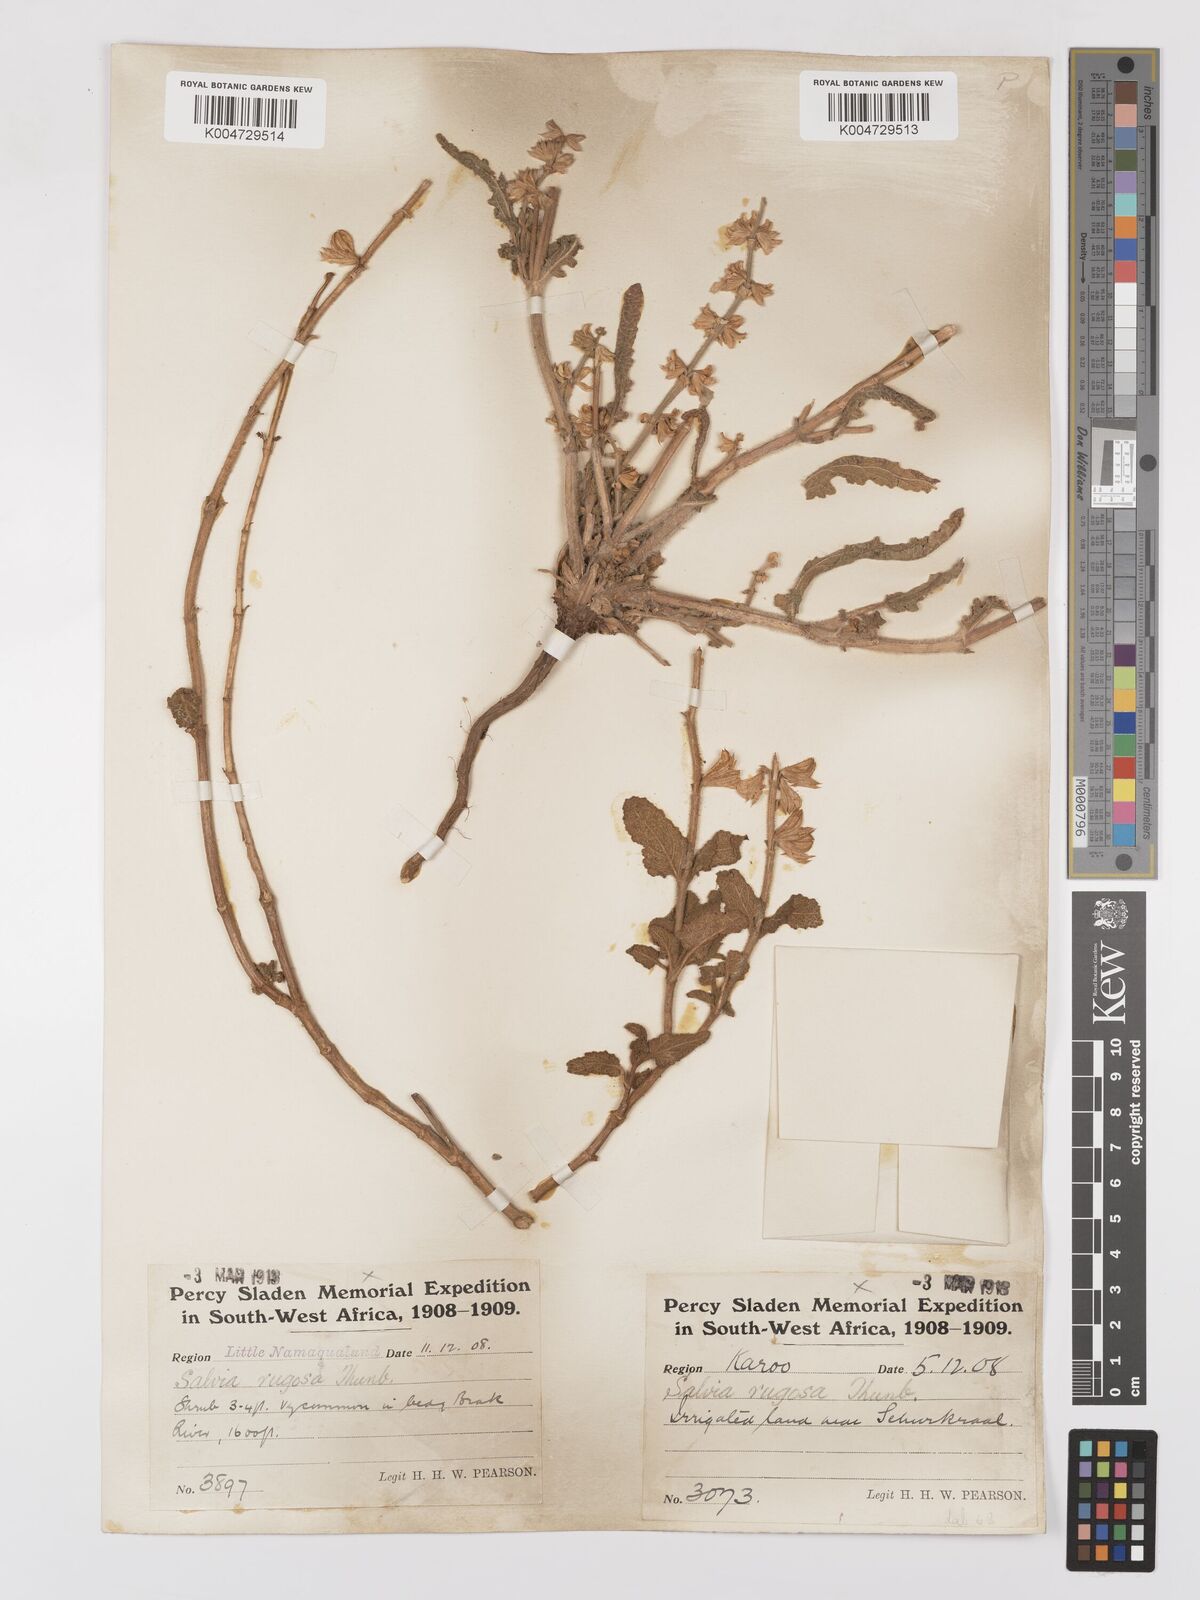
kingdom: Plantae
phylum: Tracheophyta
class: Magnoliopsida
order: Lamiales
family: Lamiaceae
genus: Salvia
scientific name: Salvia
